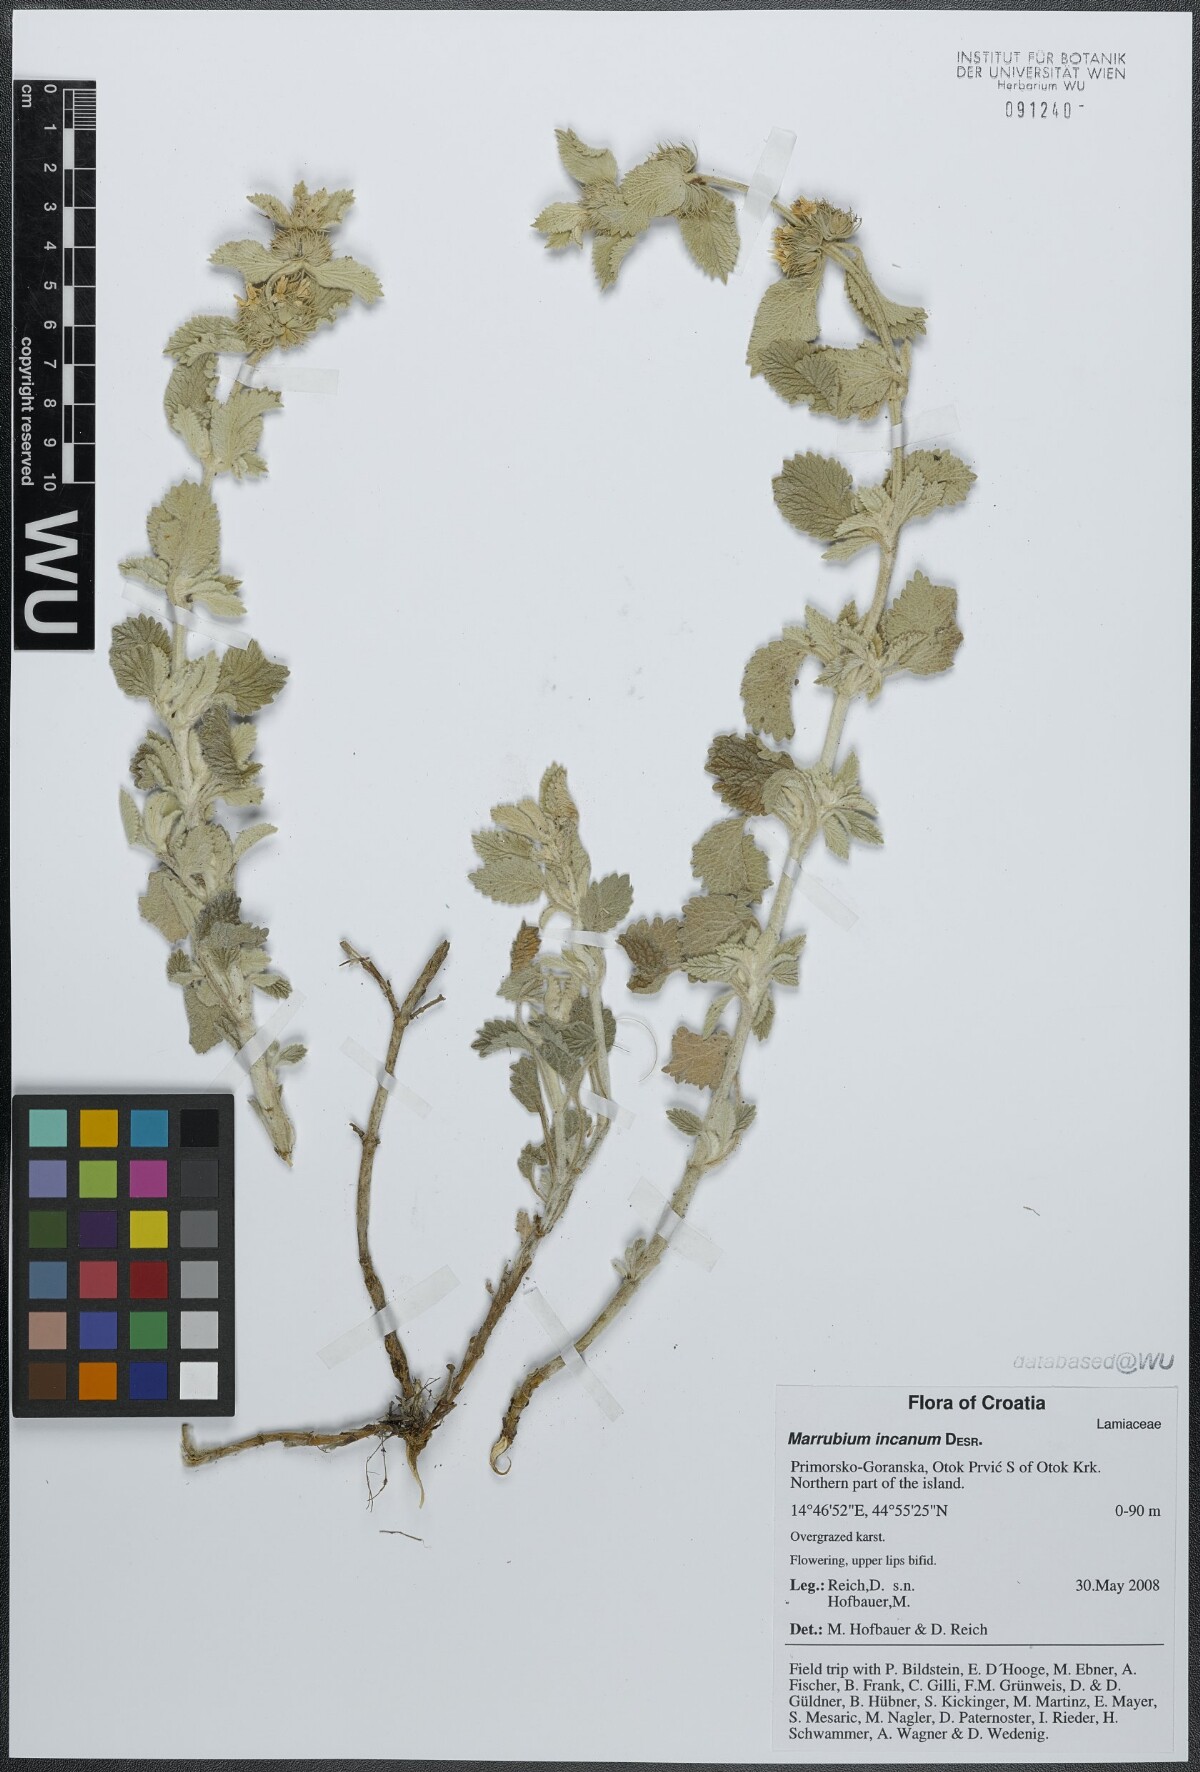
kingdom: Plantae
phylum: Tracheophyta
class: Magnoliopsida
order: Lamiales
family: Lamiaceae
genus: Marrubium
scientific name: Marrubium incanum
